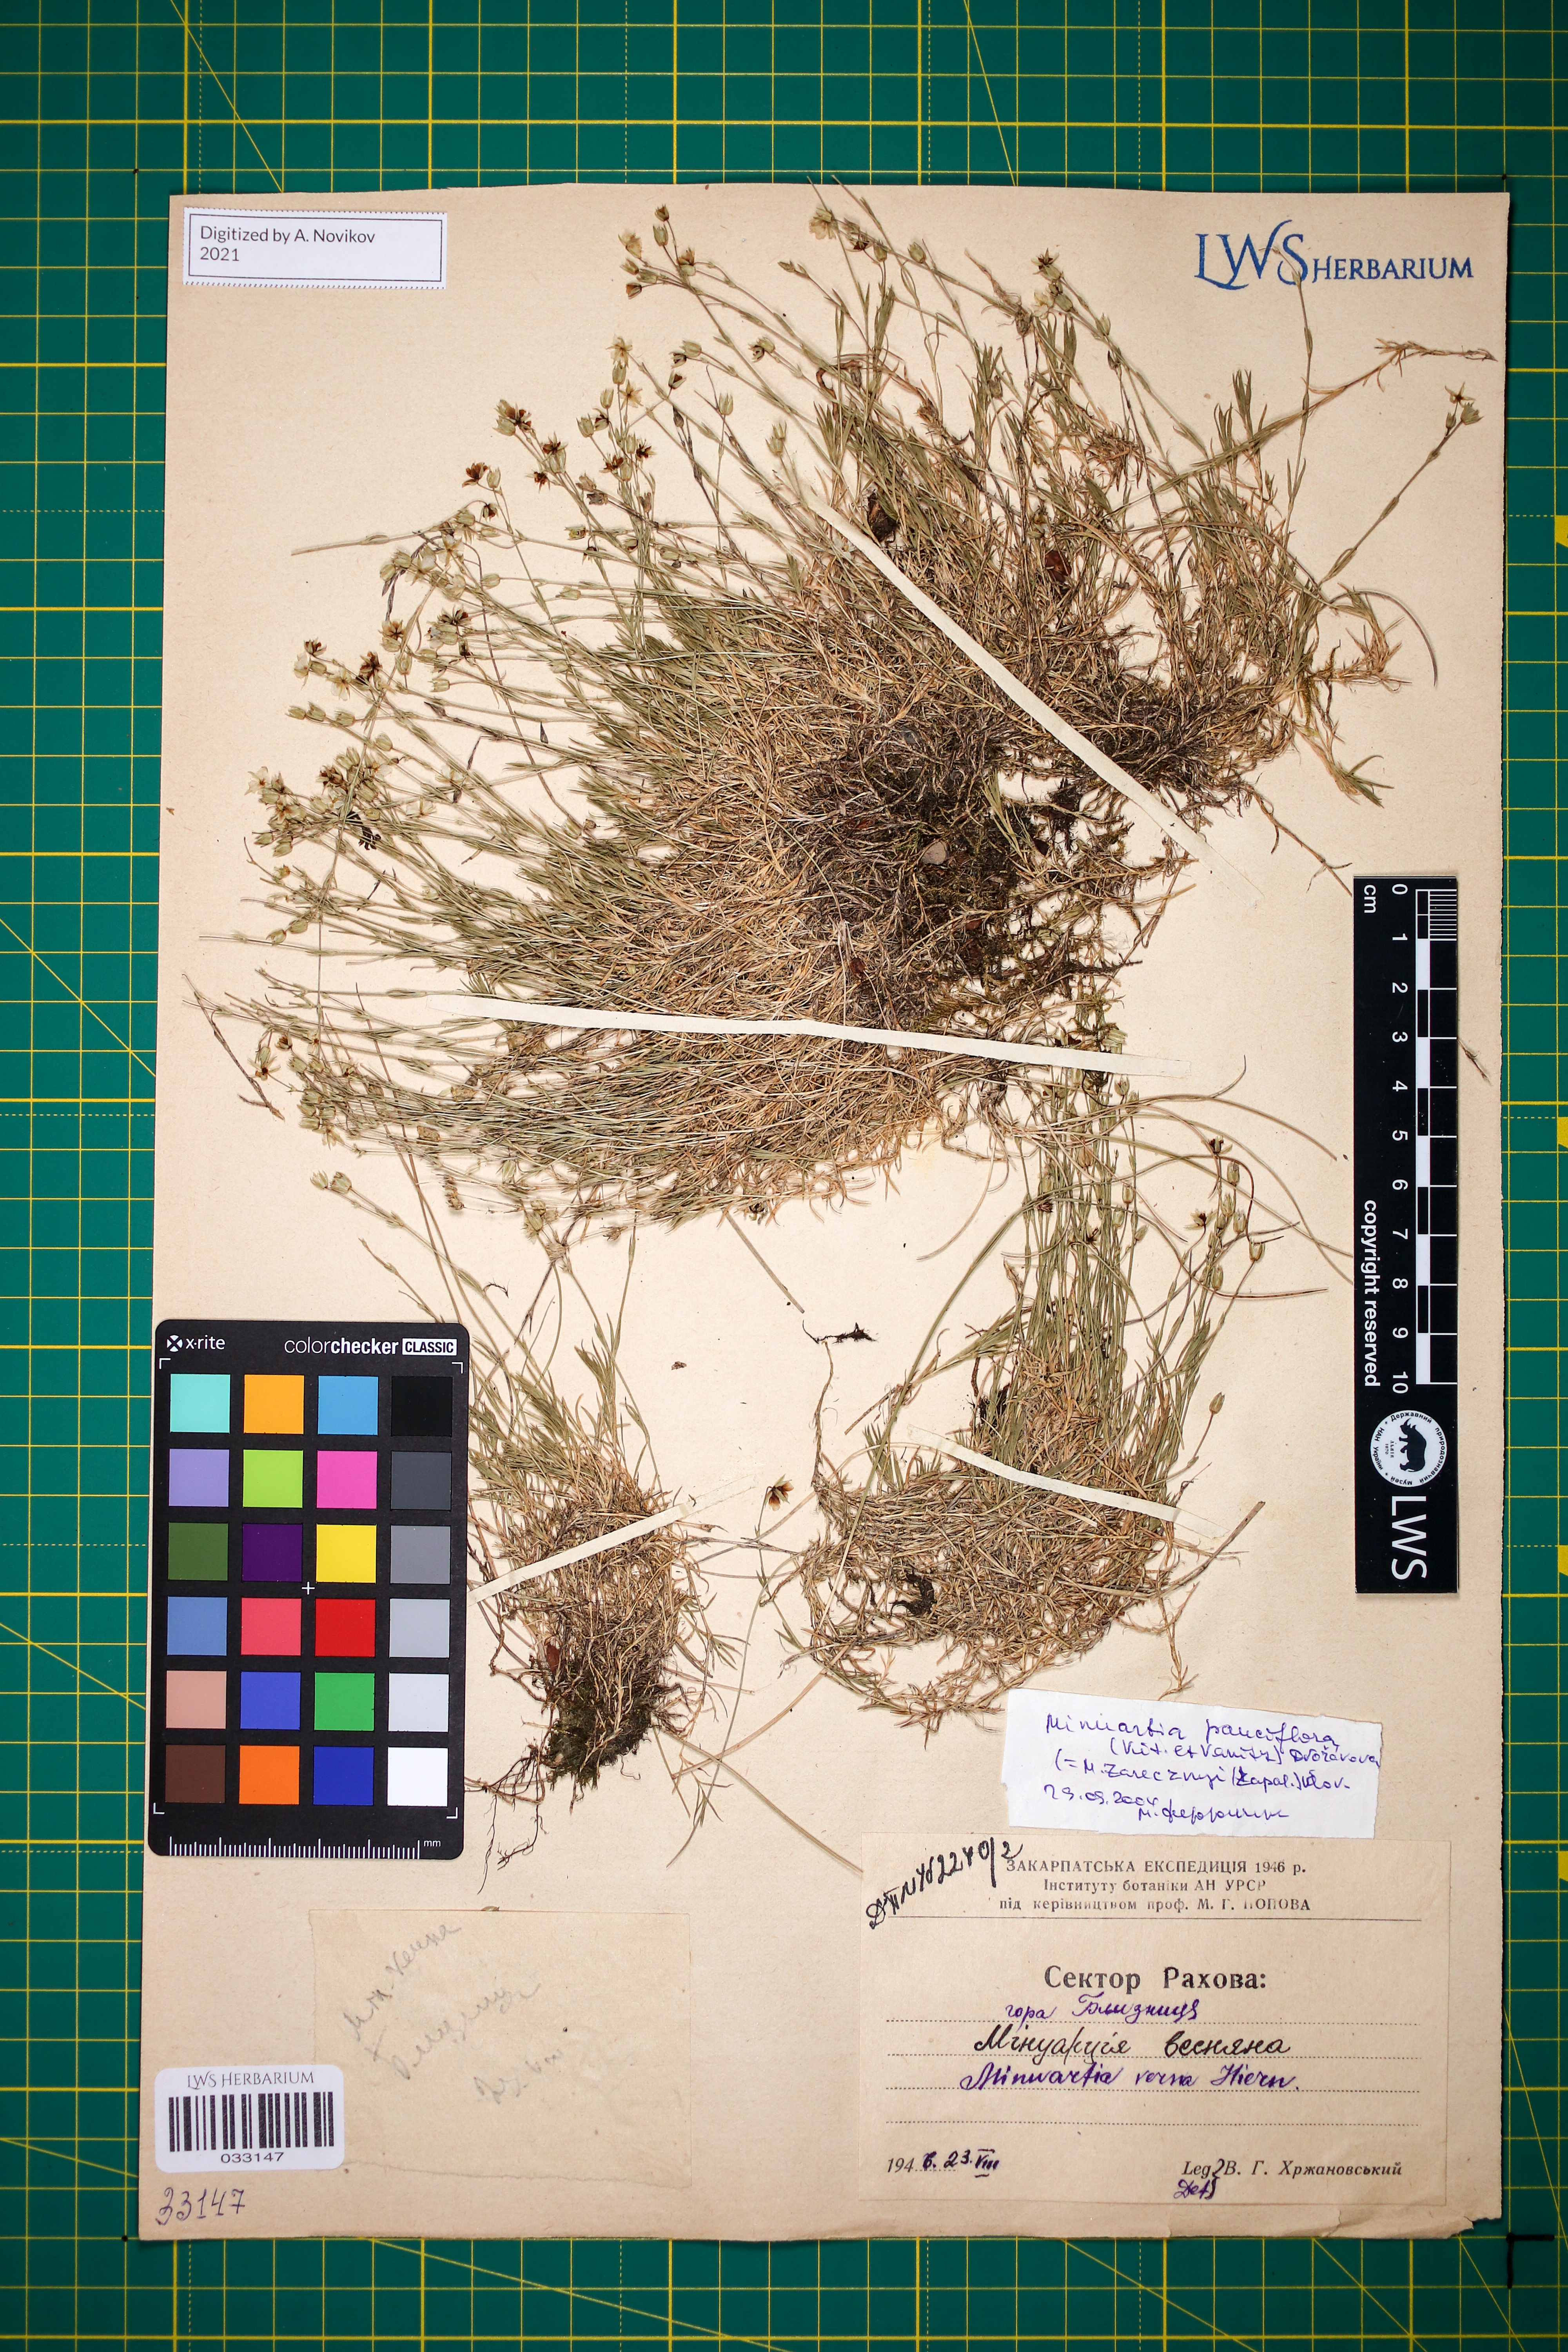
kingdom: Plantae
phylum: Tracheophyta
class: Magnoliopsida
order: Caryophyllales
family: Caryophyllaceae
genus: Minuartia
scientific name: Minuartia pauciflora
